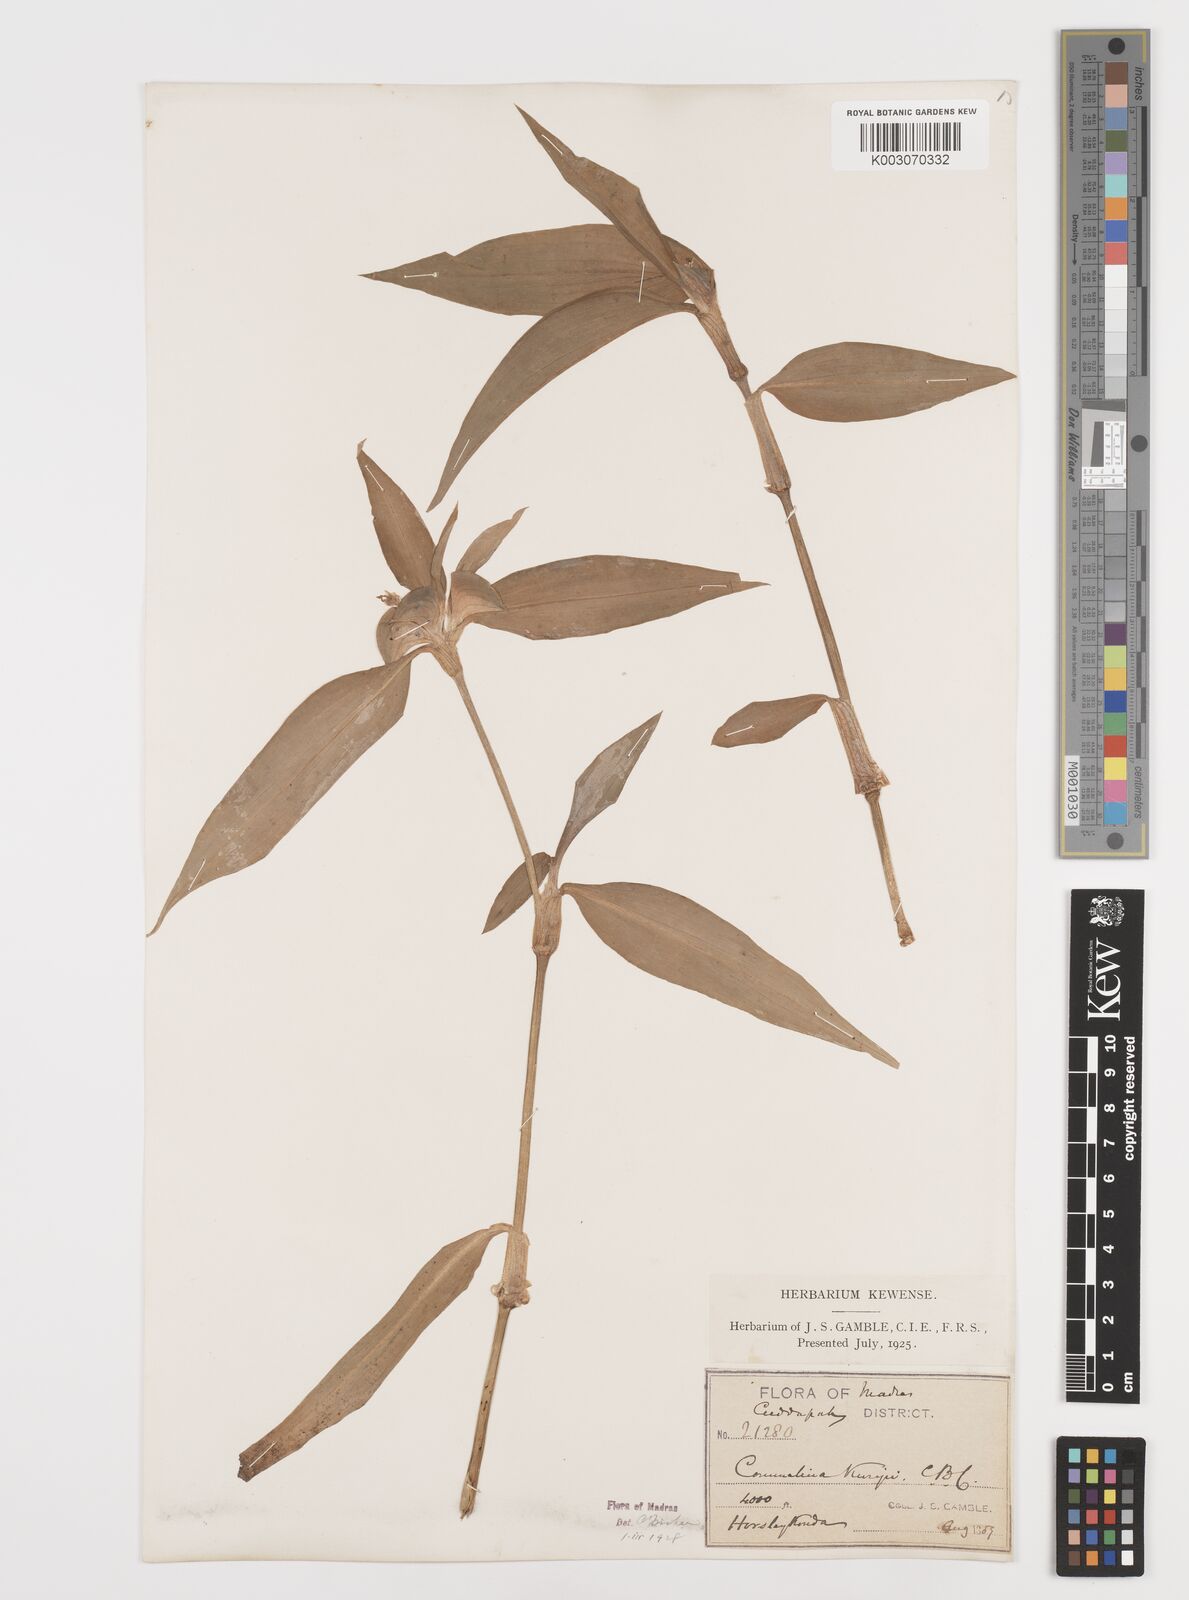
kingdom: Plantae
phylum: Tracheophyta
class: Liliopsida
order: Commelinales
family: Commelinaceae
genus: Commelina
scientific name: Commelina undulata
